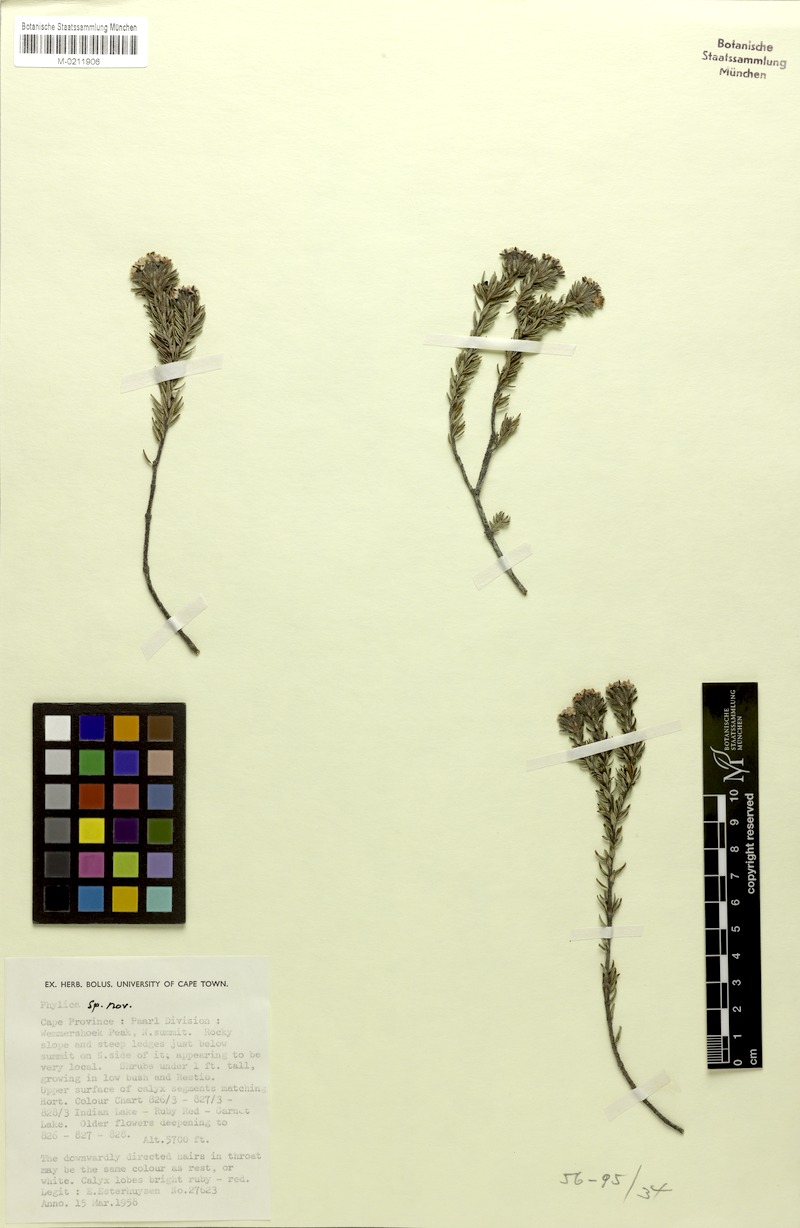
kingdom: Plantae
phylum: Tracheophyta
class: Magnoliopsida
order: Rosales
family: Rhamnaceae
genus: Phylica
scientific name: Phylica
